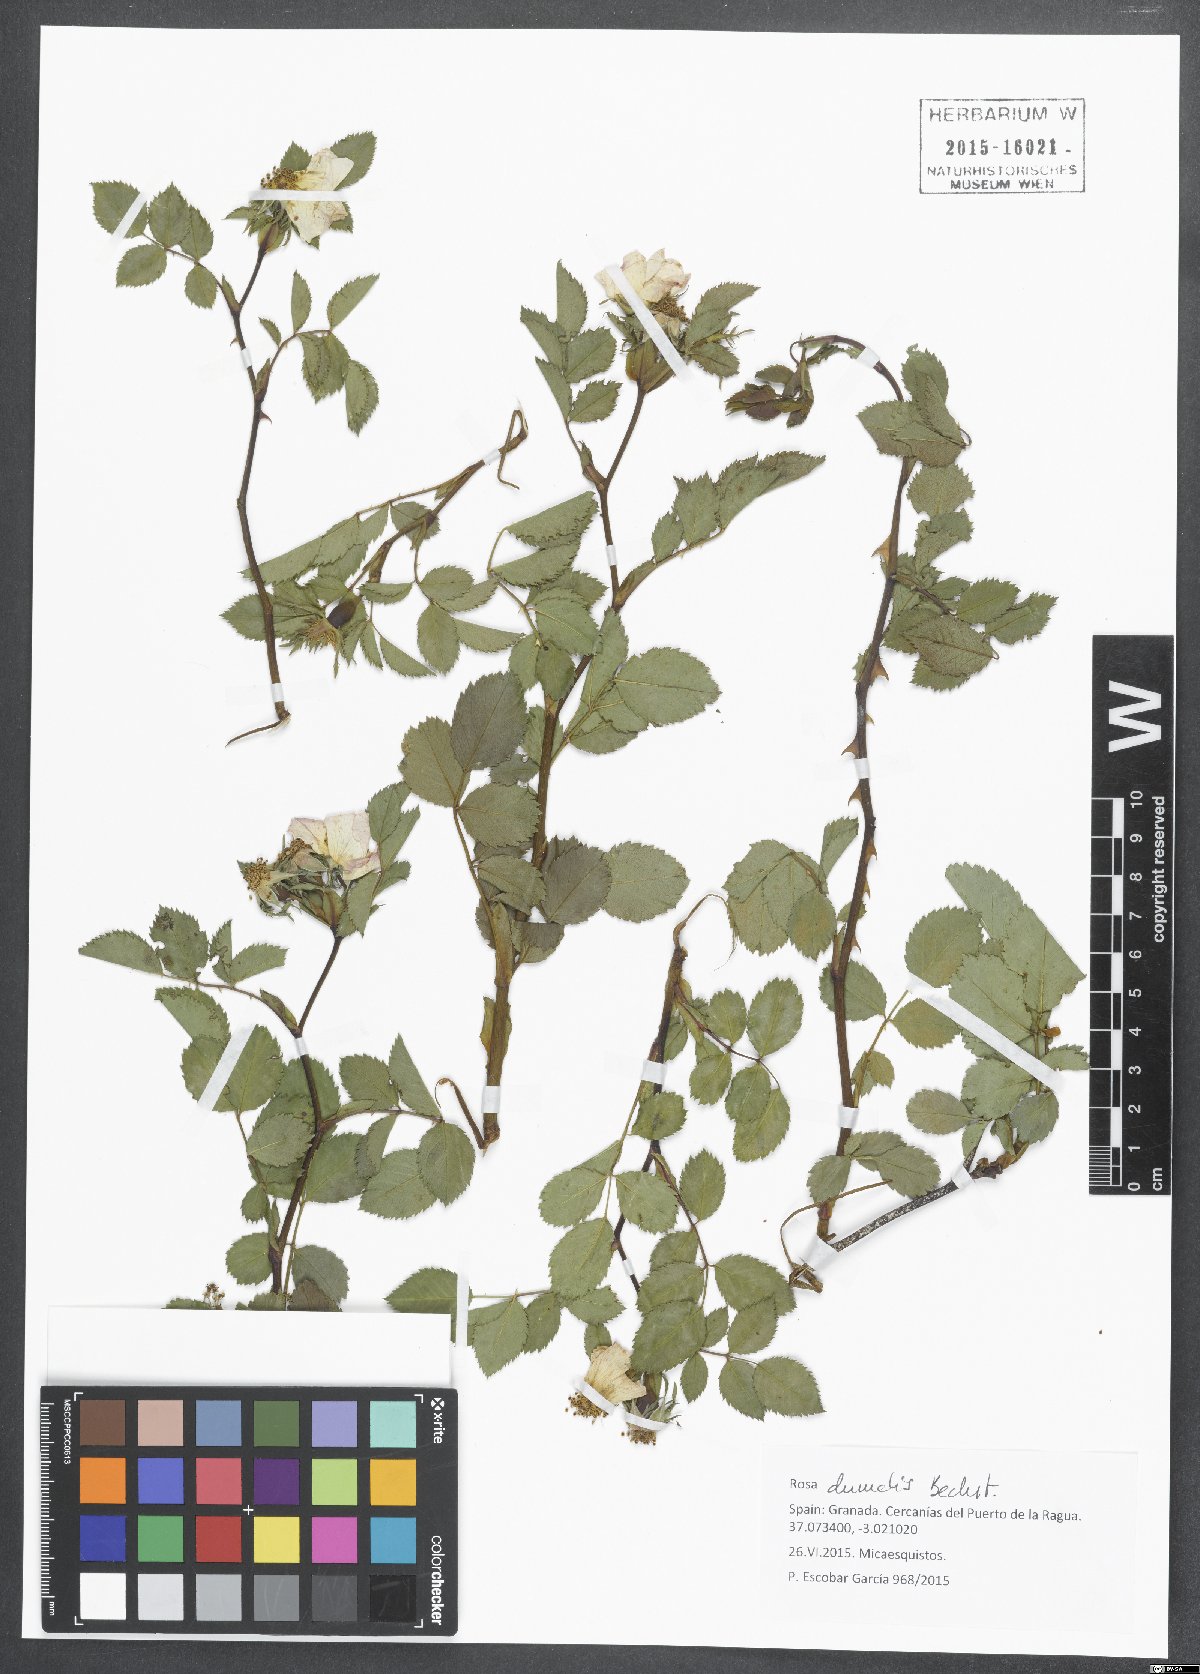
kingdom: Plantae
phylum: Tracheophyta
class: Magnoliopsida
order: Rosales
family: Rosaceae
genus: Rosa
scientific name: Rosa dumalis
